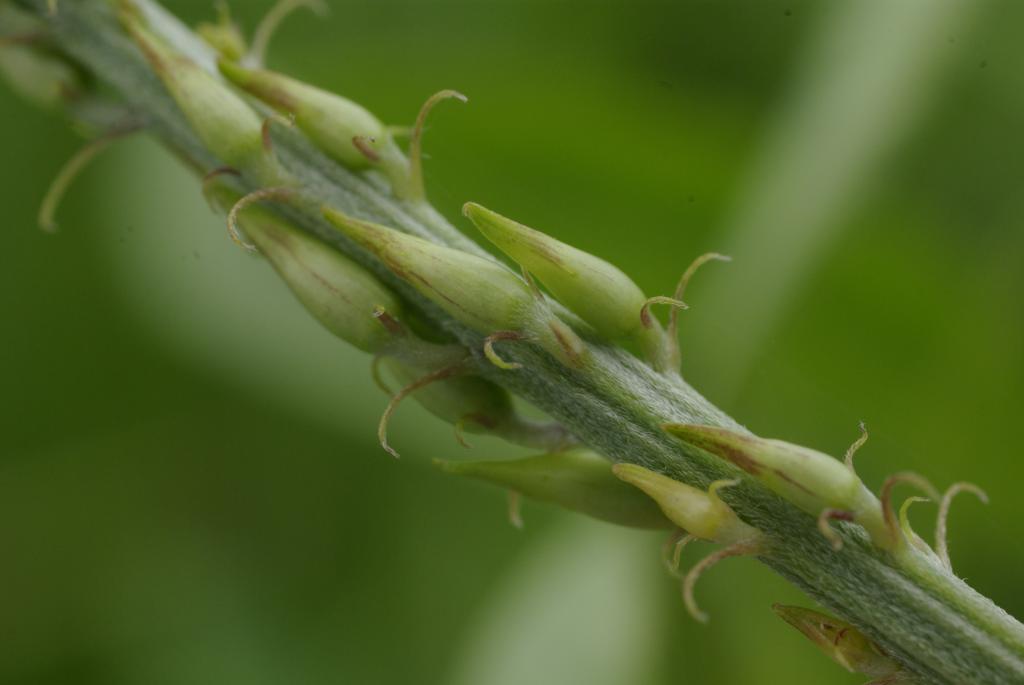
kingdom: Plantae
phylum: Tracheophyta
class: Magnoliopsida
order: Fabales
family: Fabaceae
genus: Crotalaria
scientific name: Crotalaria trichotoma
